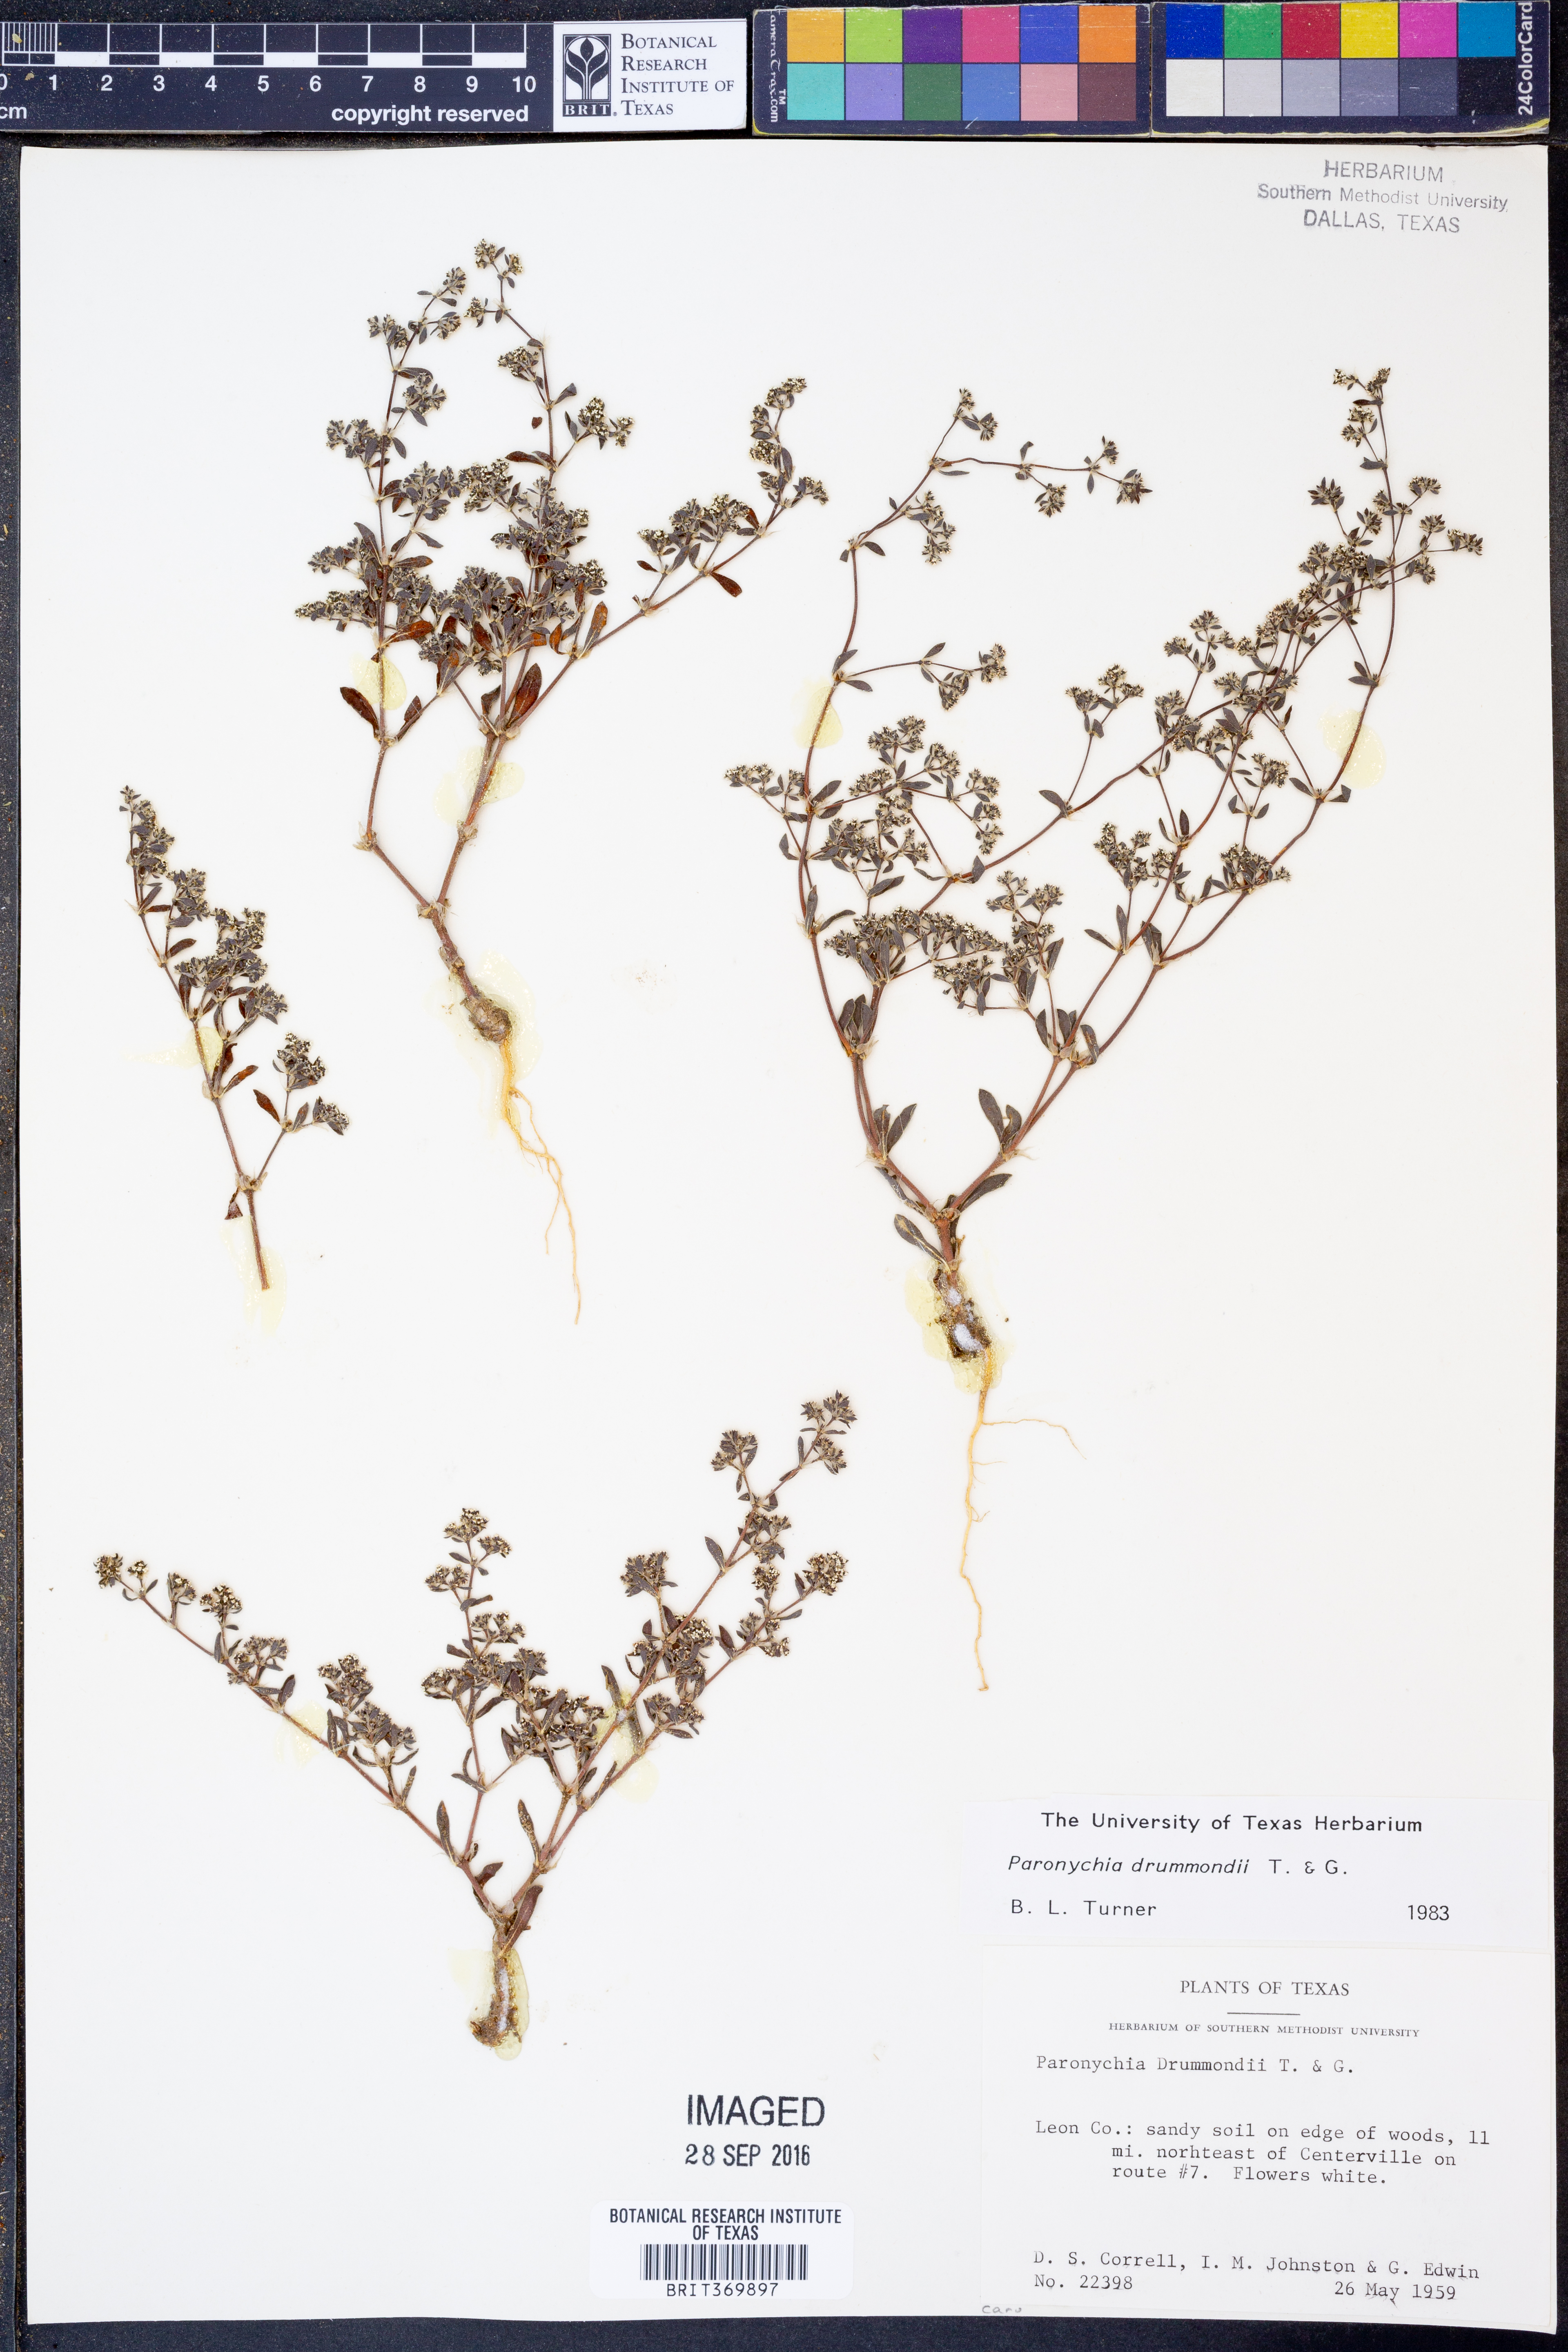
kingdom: Plantae
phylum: Tracheophyta
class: Magnoliopsida
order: Caryophyllales
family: Caryophyllaceae
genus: Paronychia
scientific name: Paronychia drummondii
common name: Drummond's nailwort
